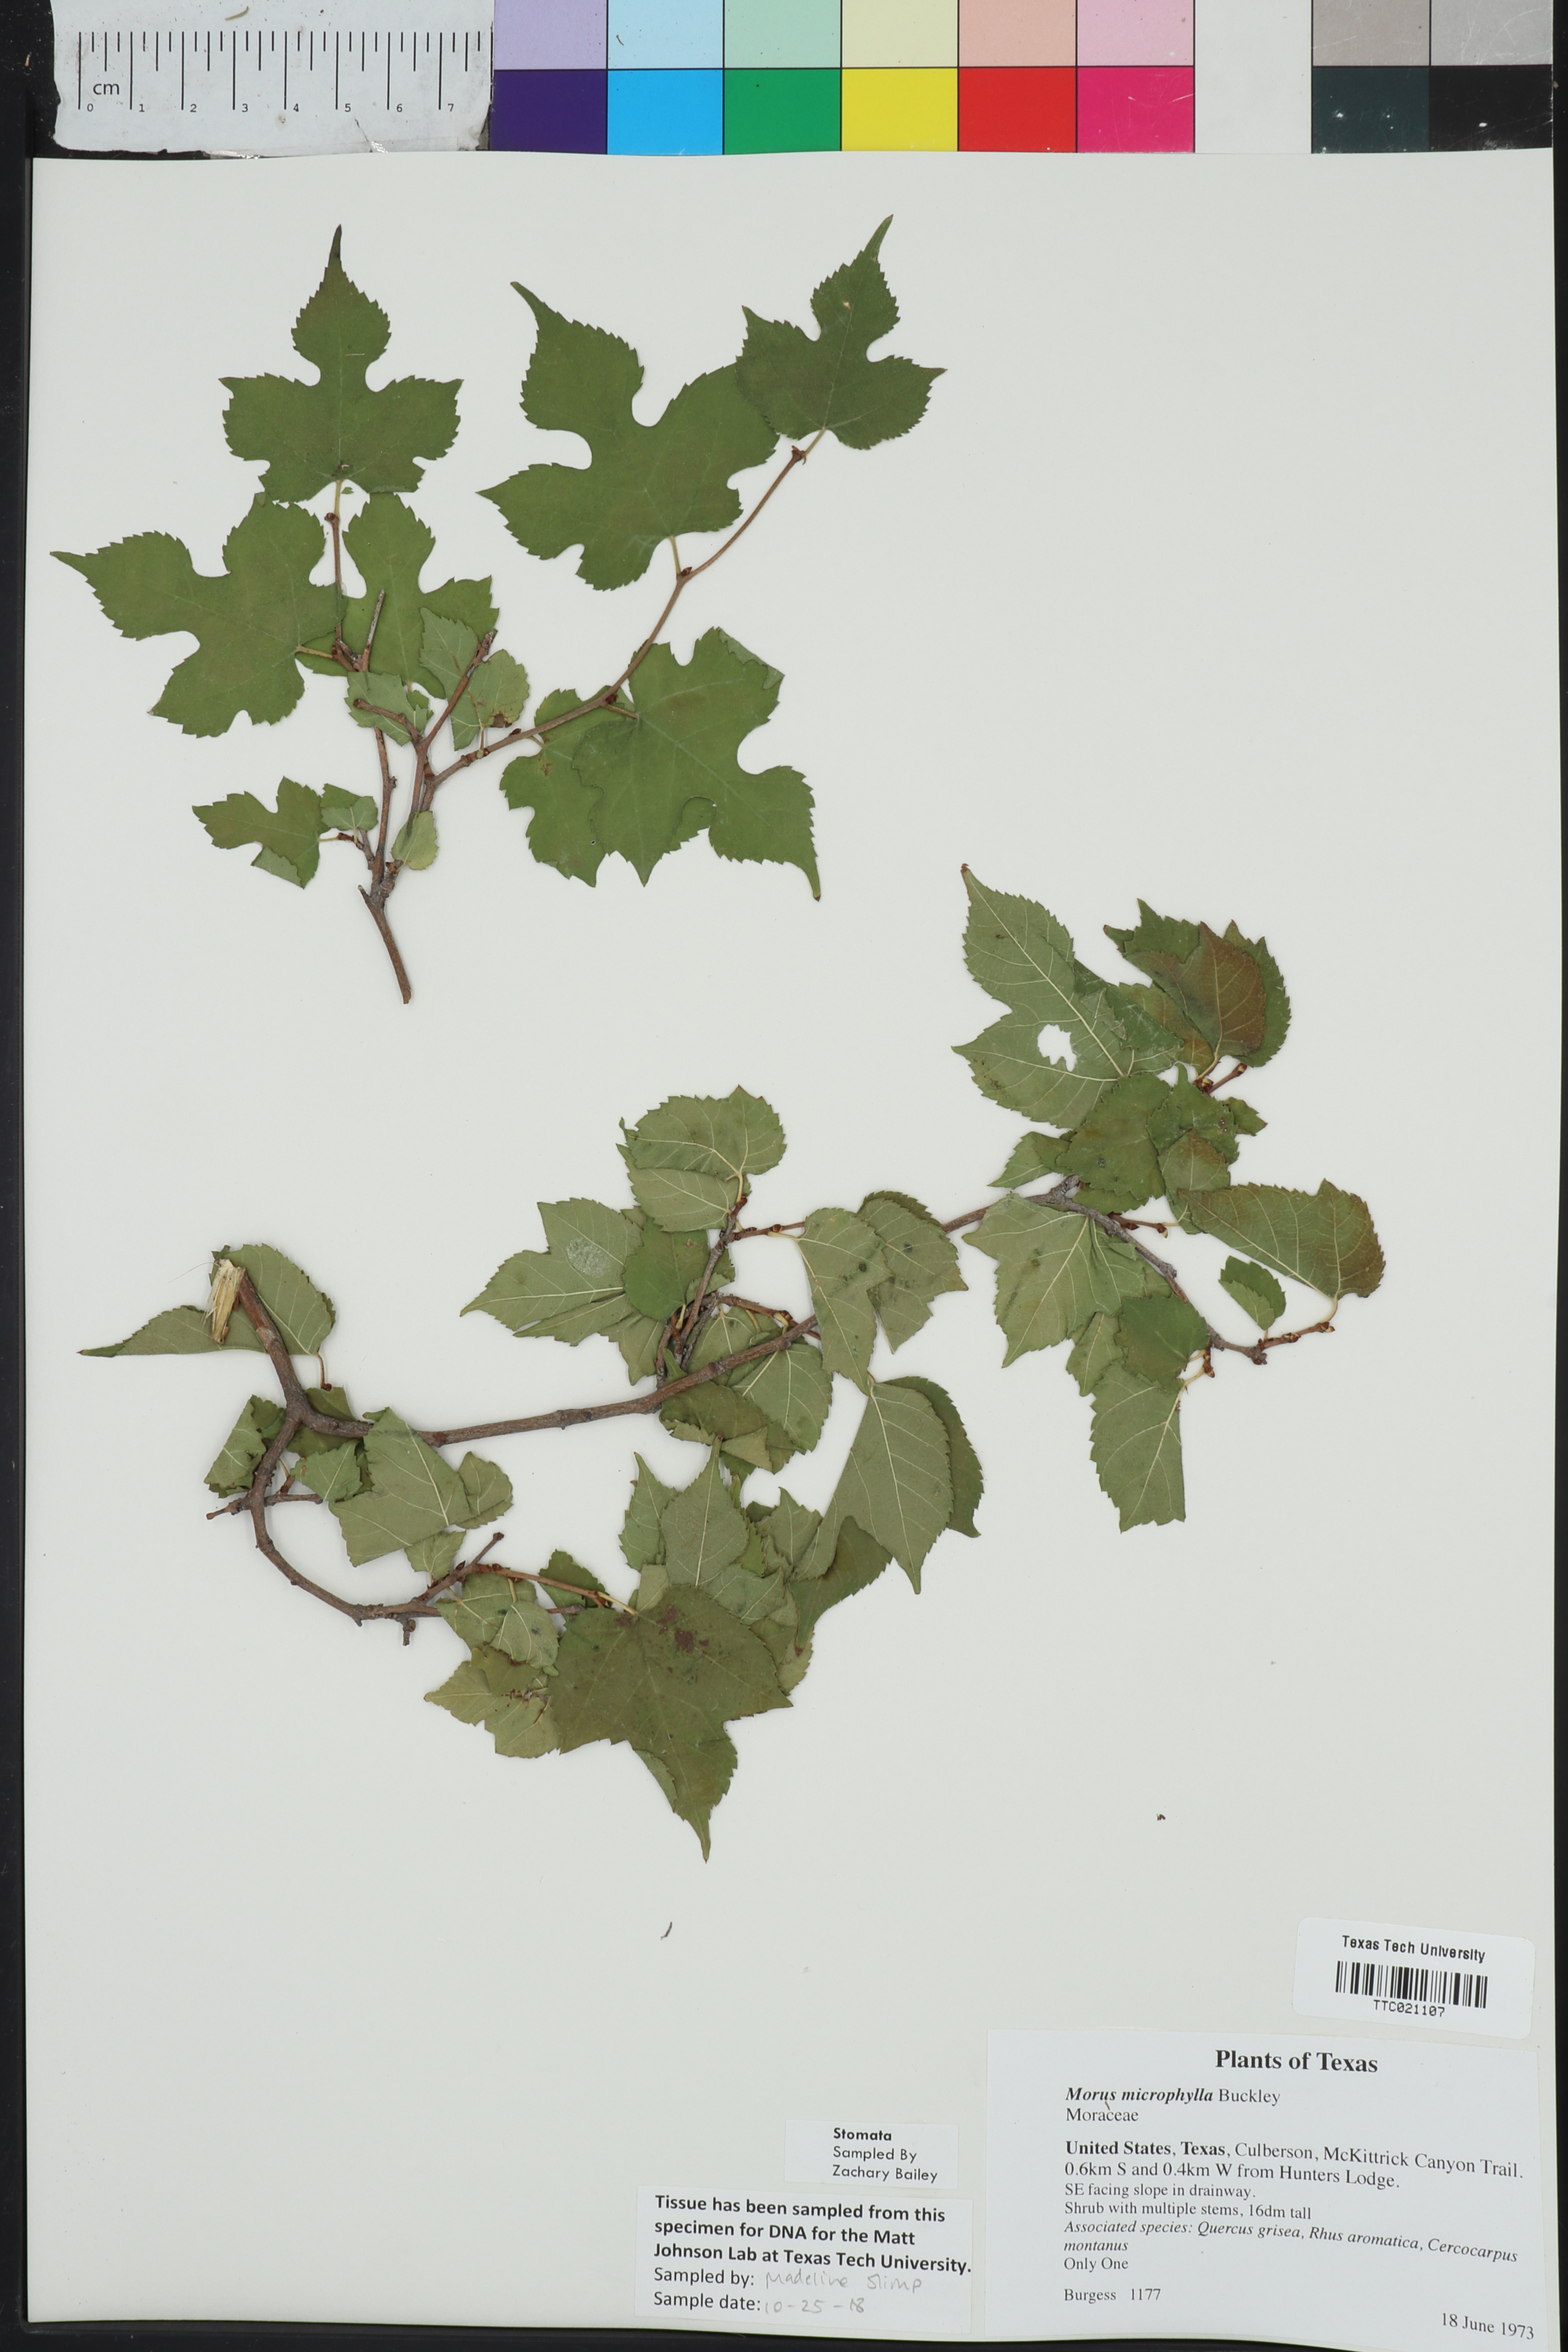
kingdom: Plantae
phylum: Tracheophyta
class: Magnoliopsida
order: Rosales
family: Moraceae
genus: Morus
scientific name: Morus microphylla
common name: Mexican mulberry
